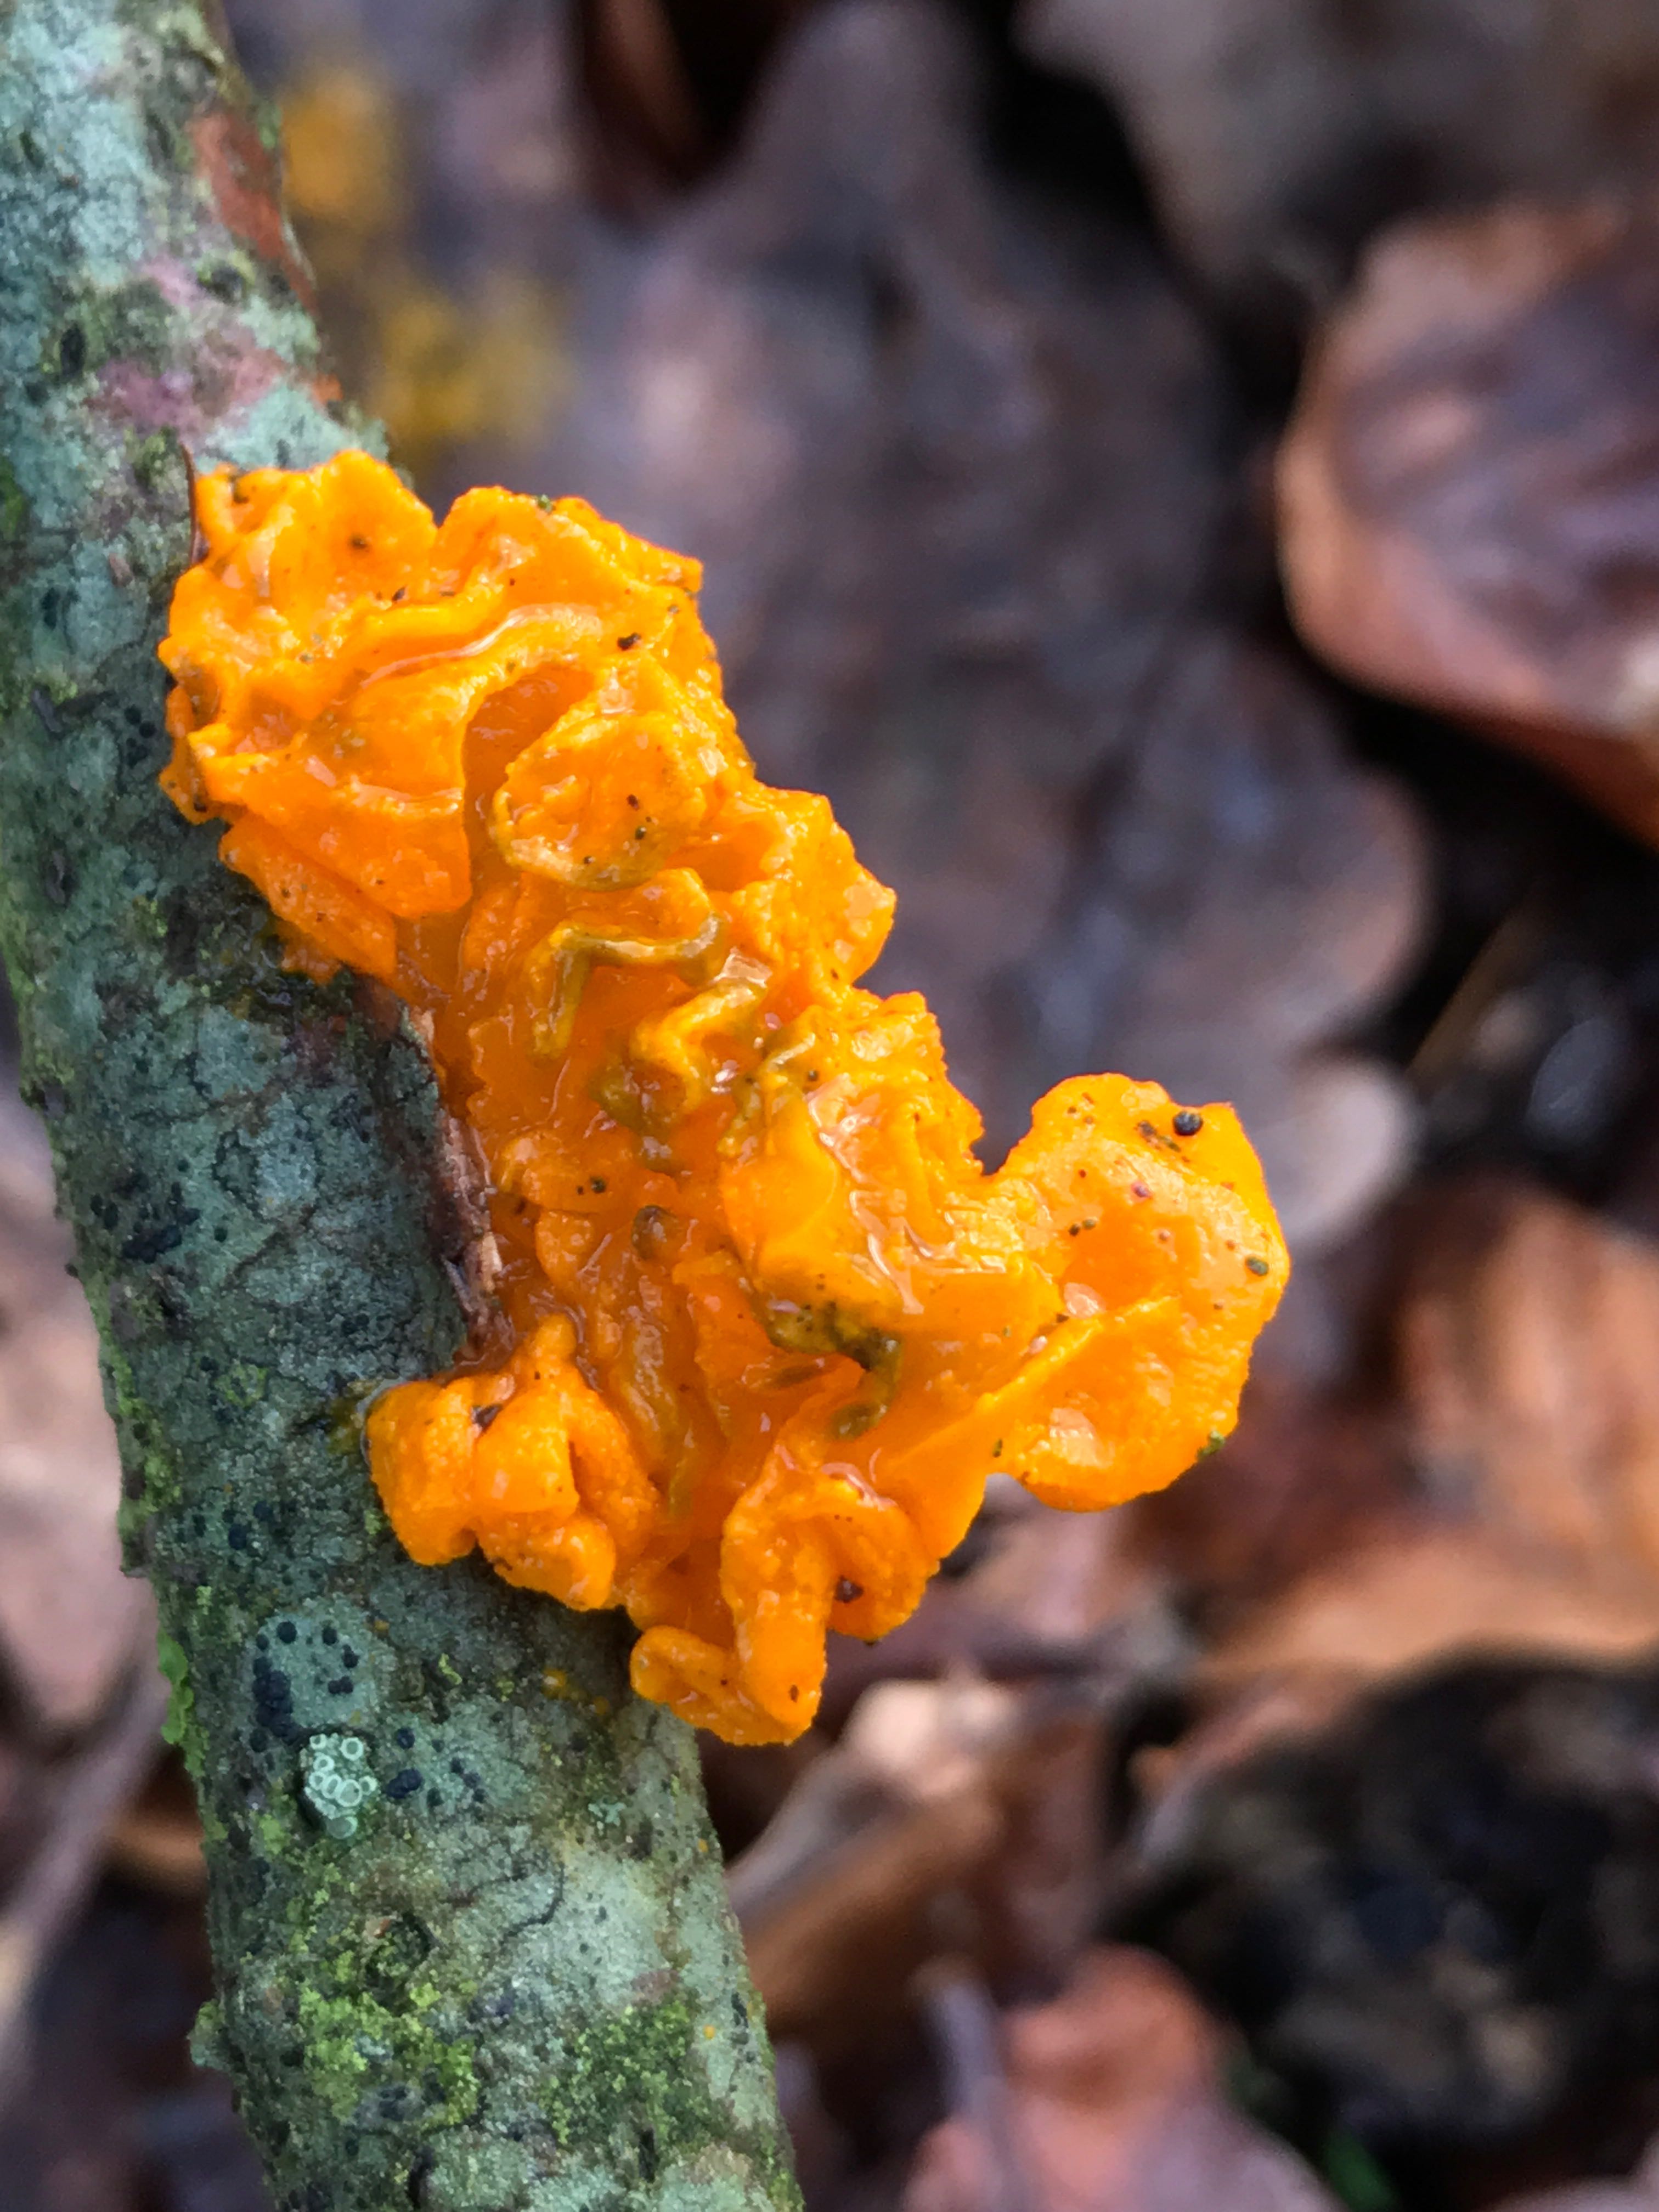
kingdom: Fungi
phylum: Basidiomycota
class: Tremellomycetes
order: Tremellales
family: Tremellaceae
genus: Tremella
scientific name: Tremella mesenterica
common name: gul bævresvamp
